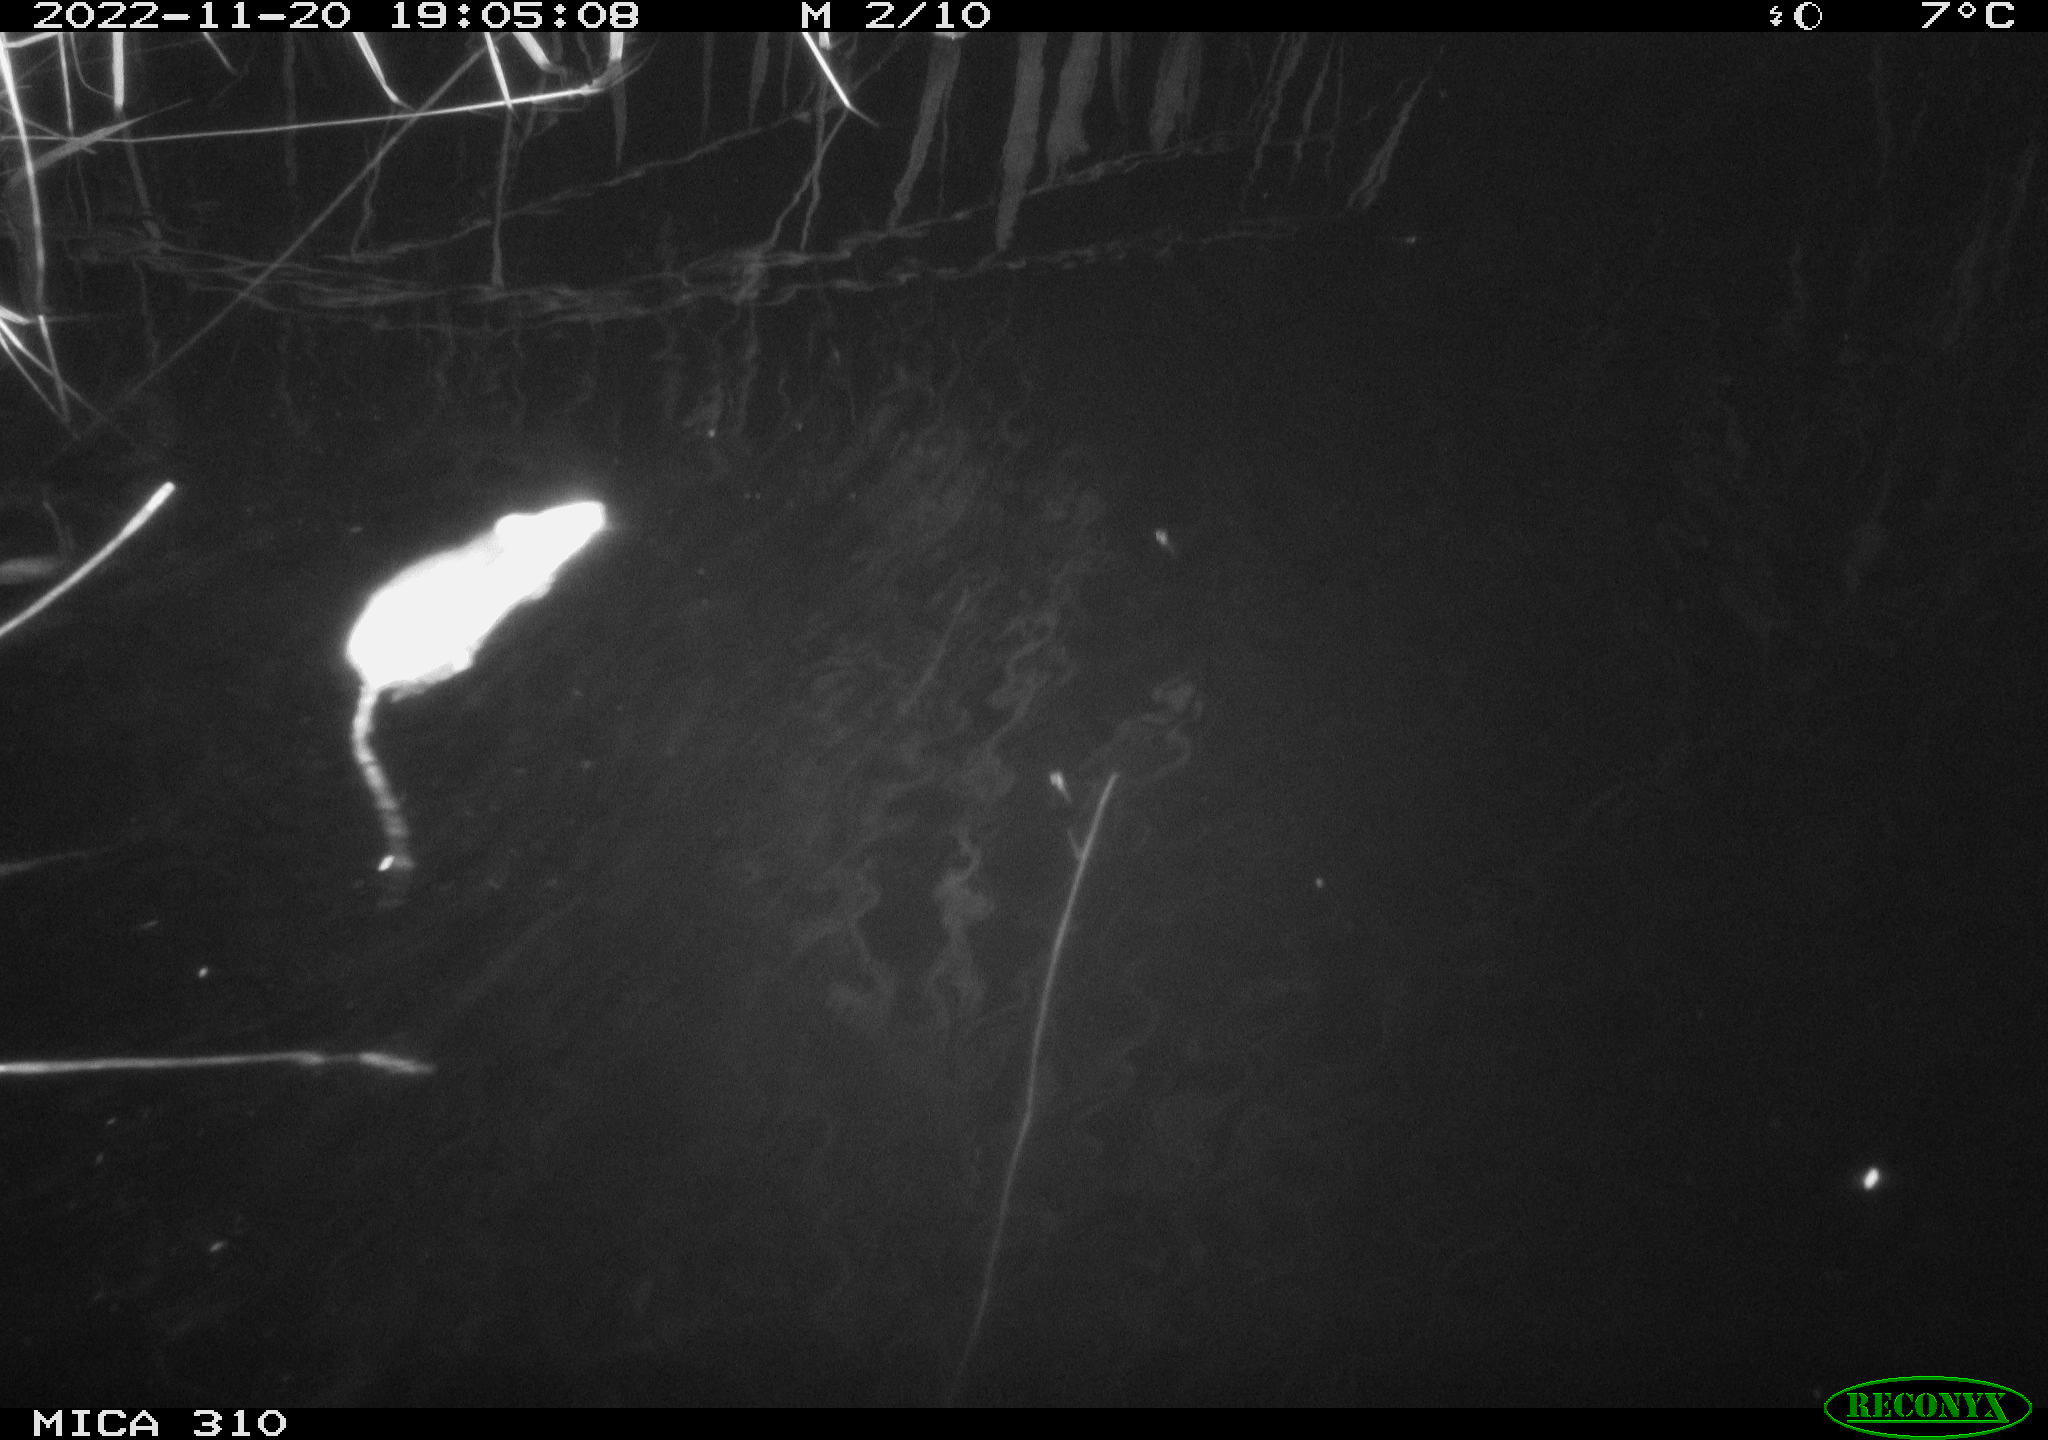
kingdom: Animalia
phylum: Chordata
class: Mammalia
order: Rodentia
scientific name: Rodentia
